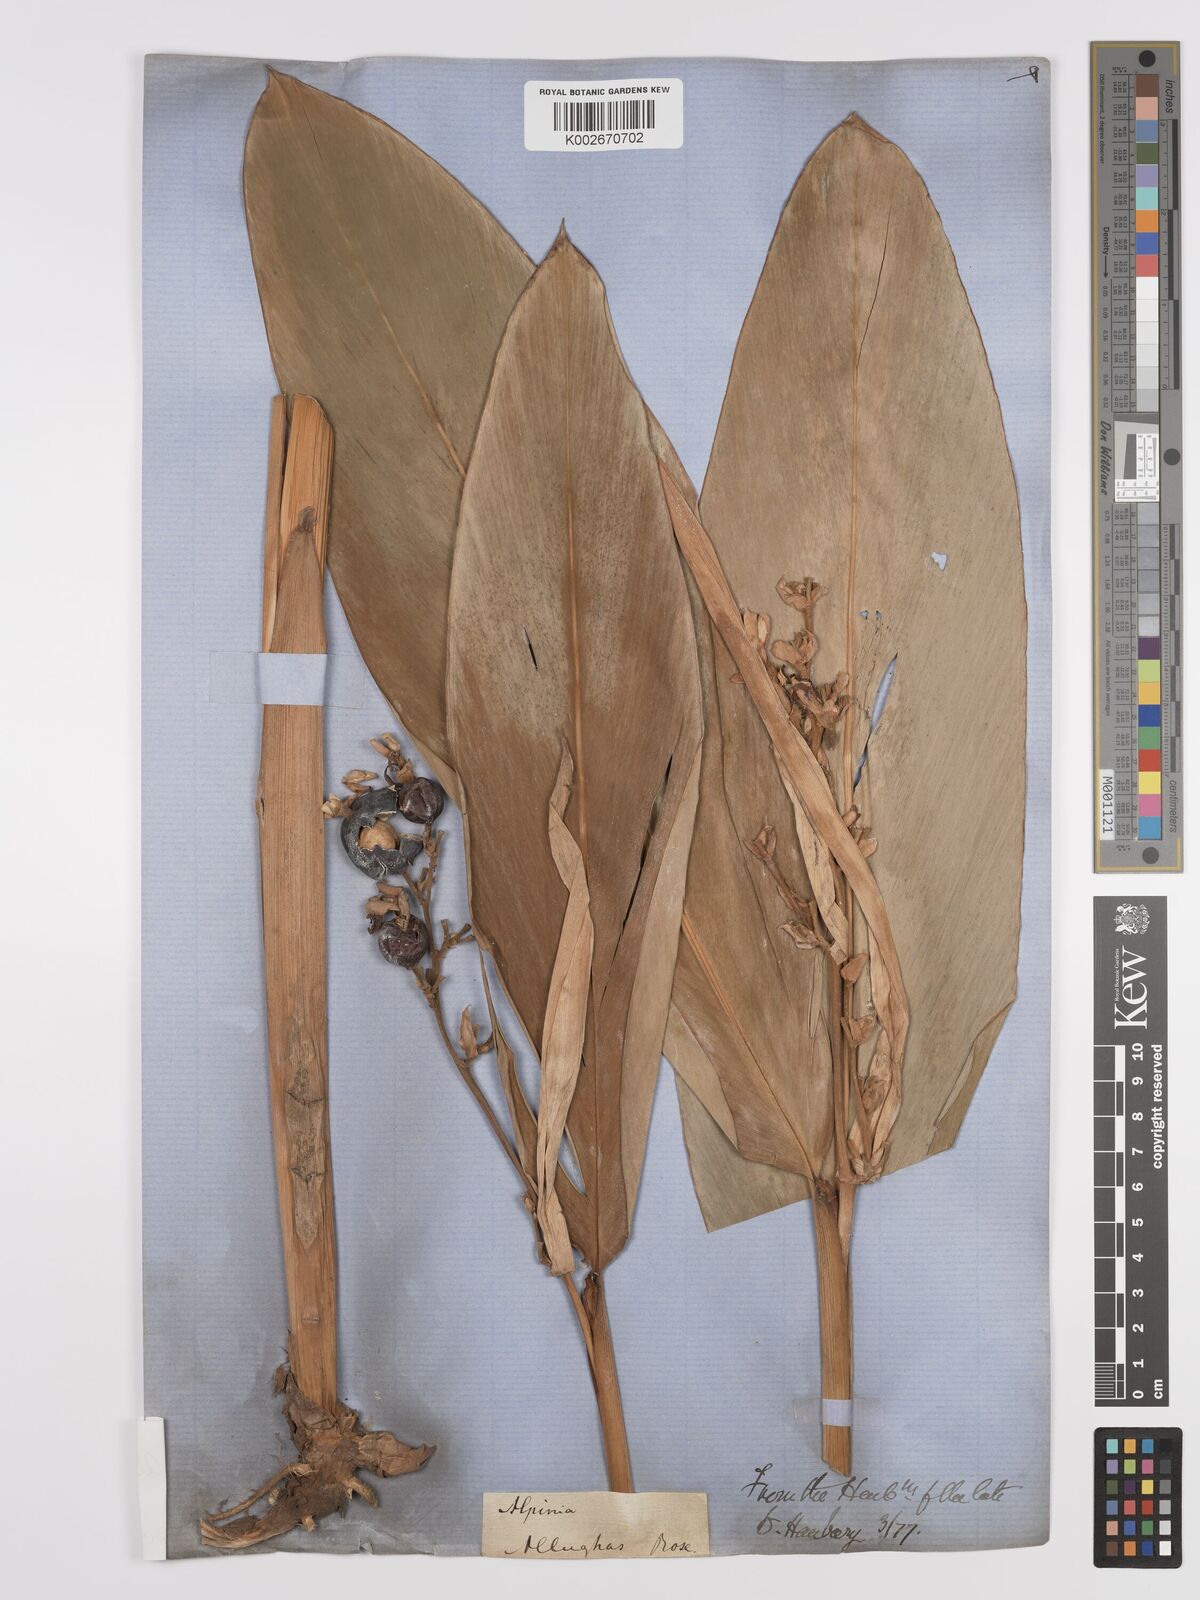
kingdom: Plantae
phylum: Tracheophyta
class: Liliopsida
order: Zingiberales
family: Zingiberaceae
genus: Alpinia
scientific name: Alpinia nigra
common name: Black fruited galanga
